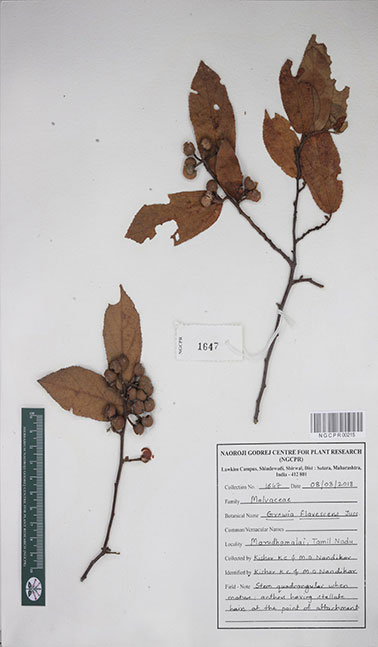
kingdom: Plantae
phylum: Tracheophyta
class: Magnoliopsida
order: Malvales
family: Malvaceae
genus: Grewia
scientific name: Grewia flavescens
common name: Sandpaper raisin
